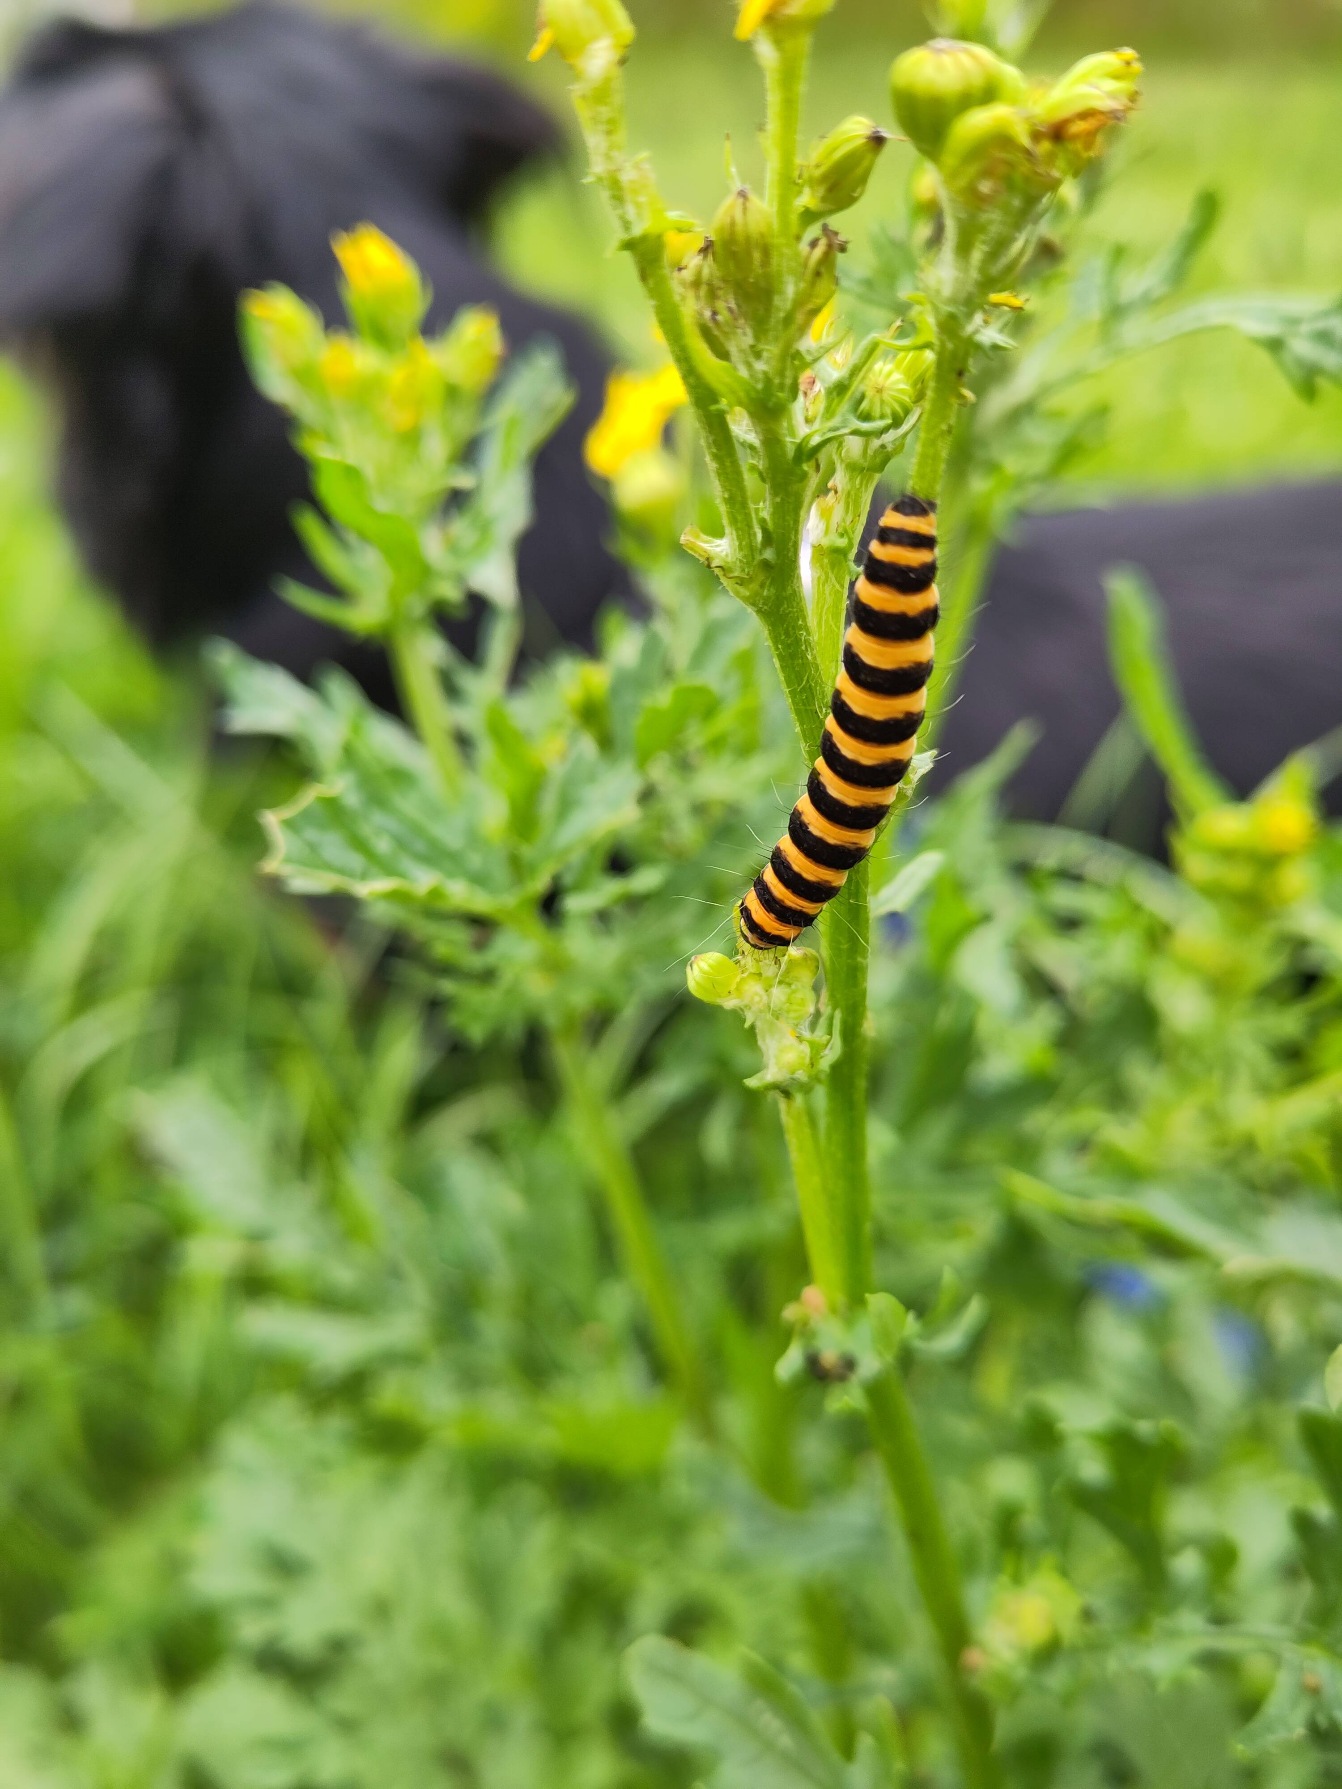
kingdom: Animalia
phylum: Arthropoda
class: Insecta
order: Lepidoptera
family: Erebidae
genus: Tyria
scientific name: Tyria jacobaeae
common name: Blodplet
